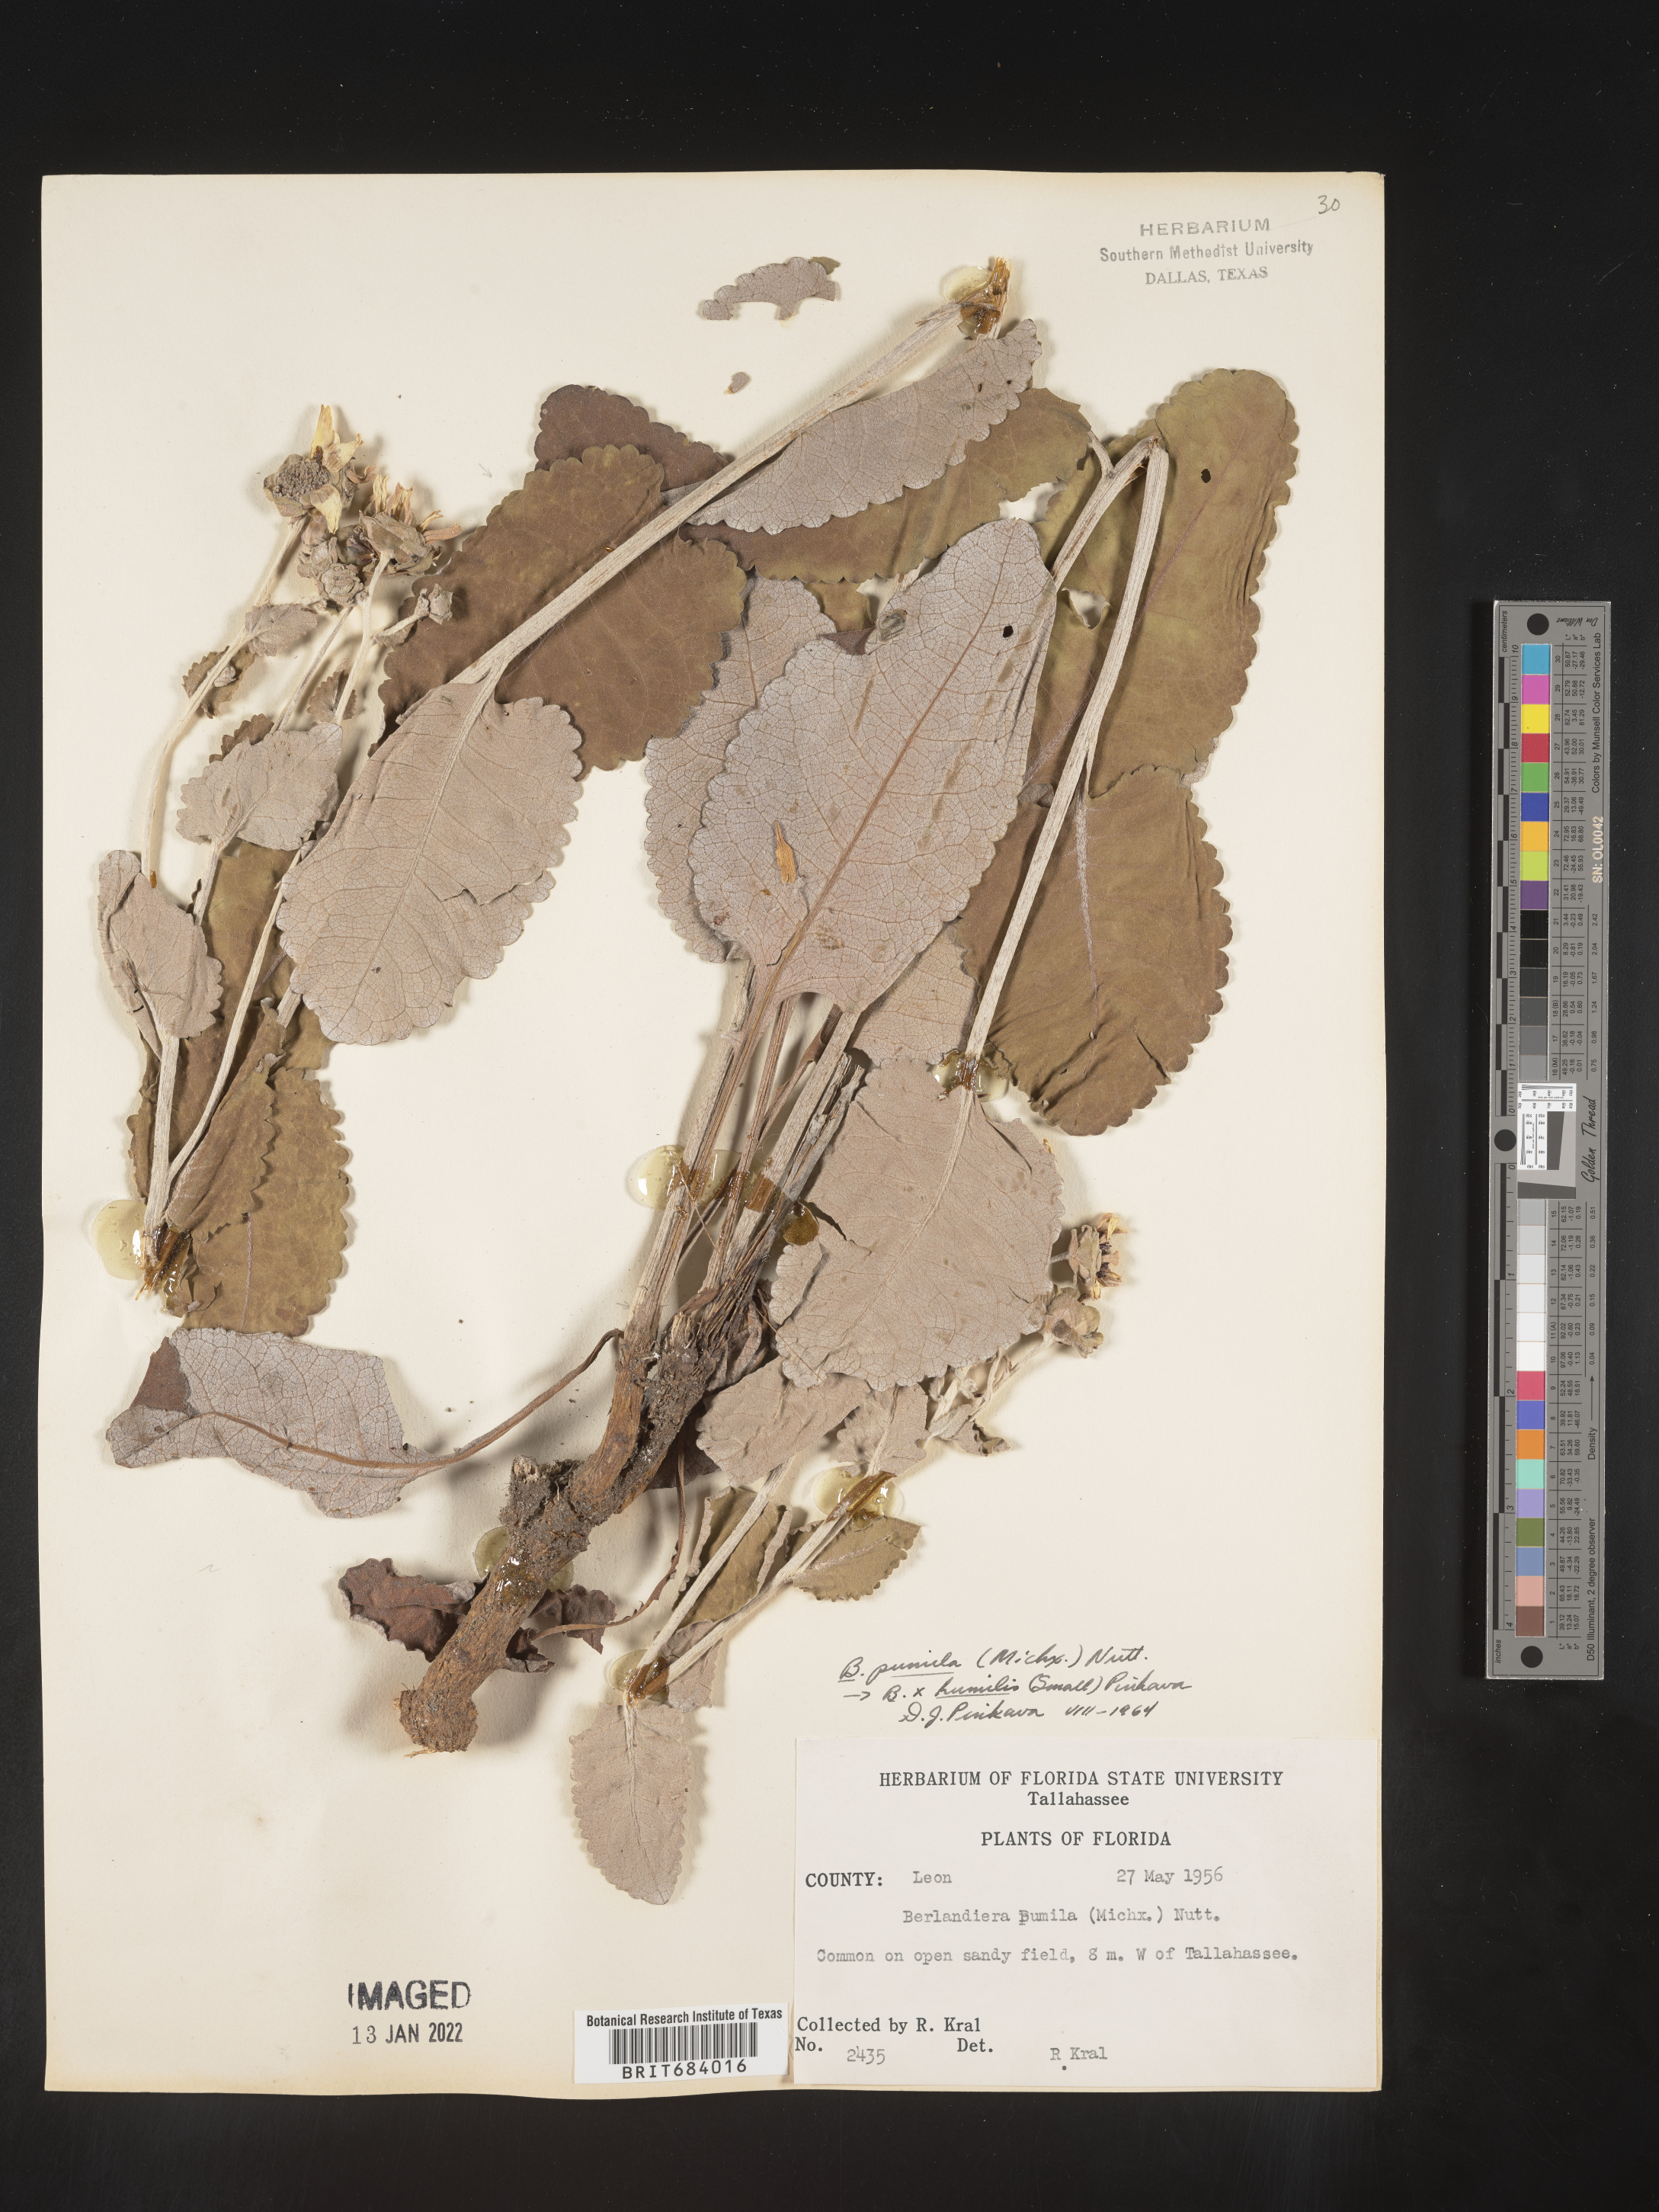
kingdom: Plantae
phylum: Tracheophyta
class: Magnoliopsida
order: Asterales
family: Asteraceae
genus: Berlandiera
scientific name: Berlandiera pumila
